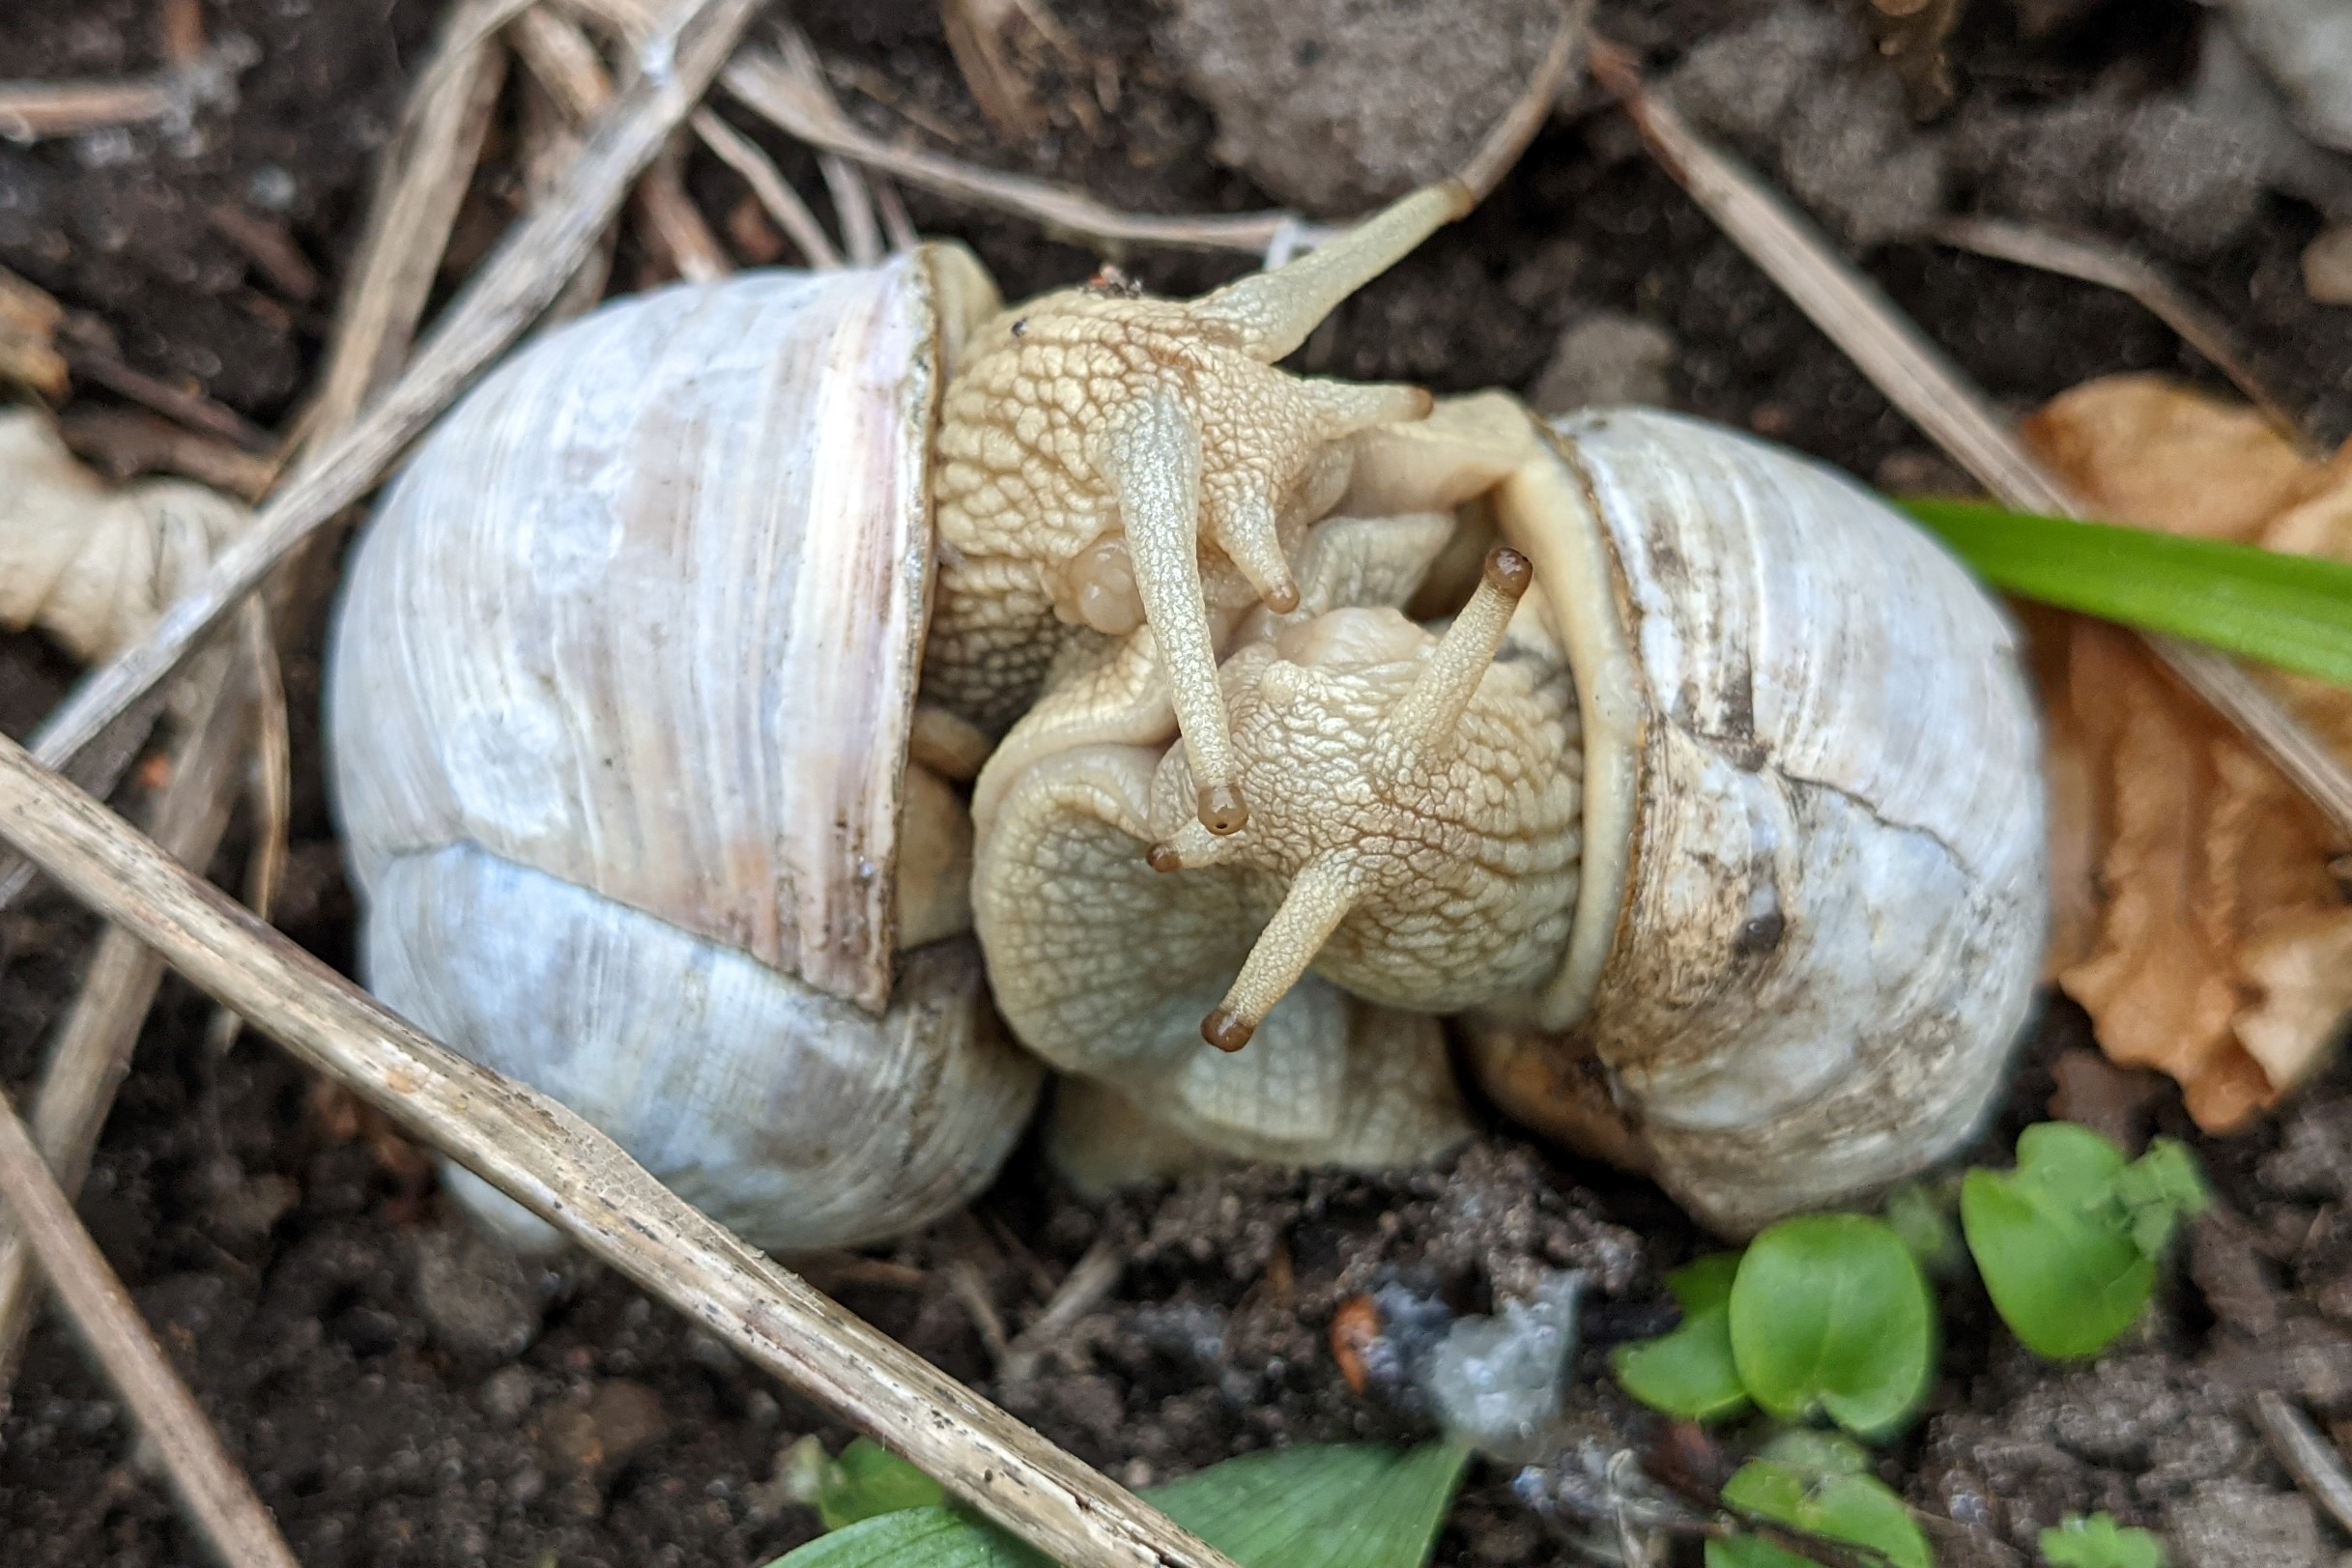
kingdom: Animalia
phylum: Mollusca
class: Gastropoda
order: Stylommatophora
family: Helicidae
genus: Helix
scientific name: Helix pomatia
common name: Vinbjergsnegl
